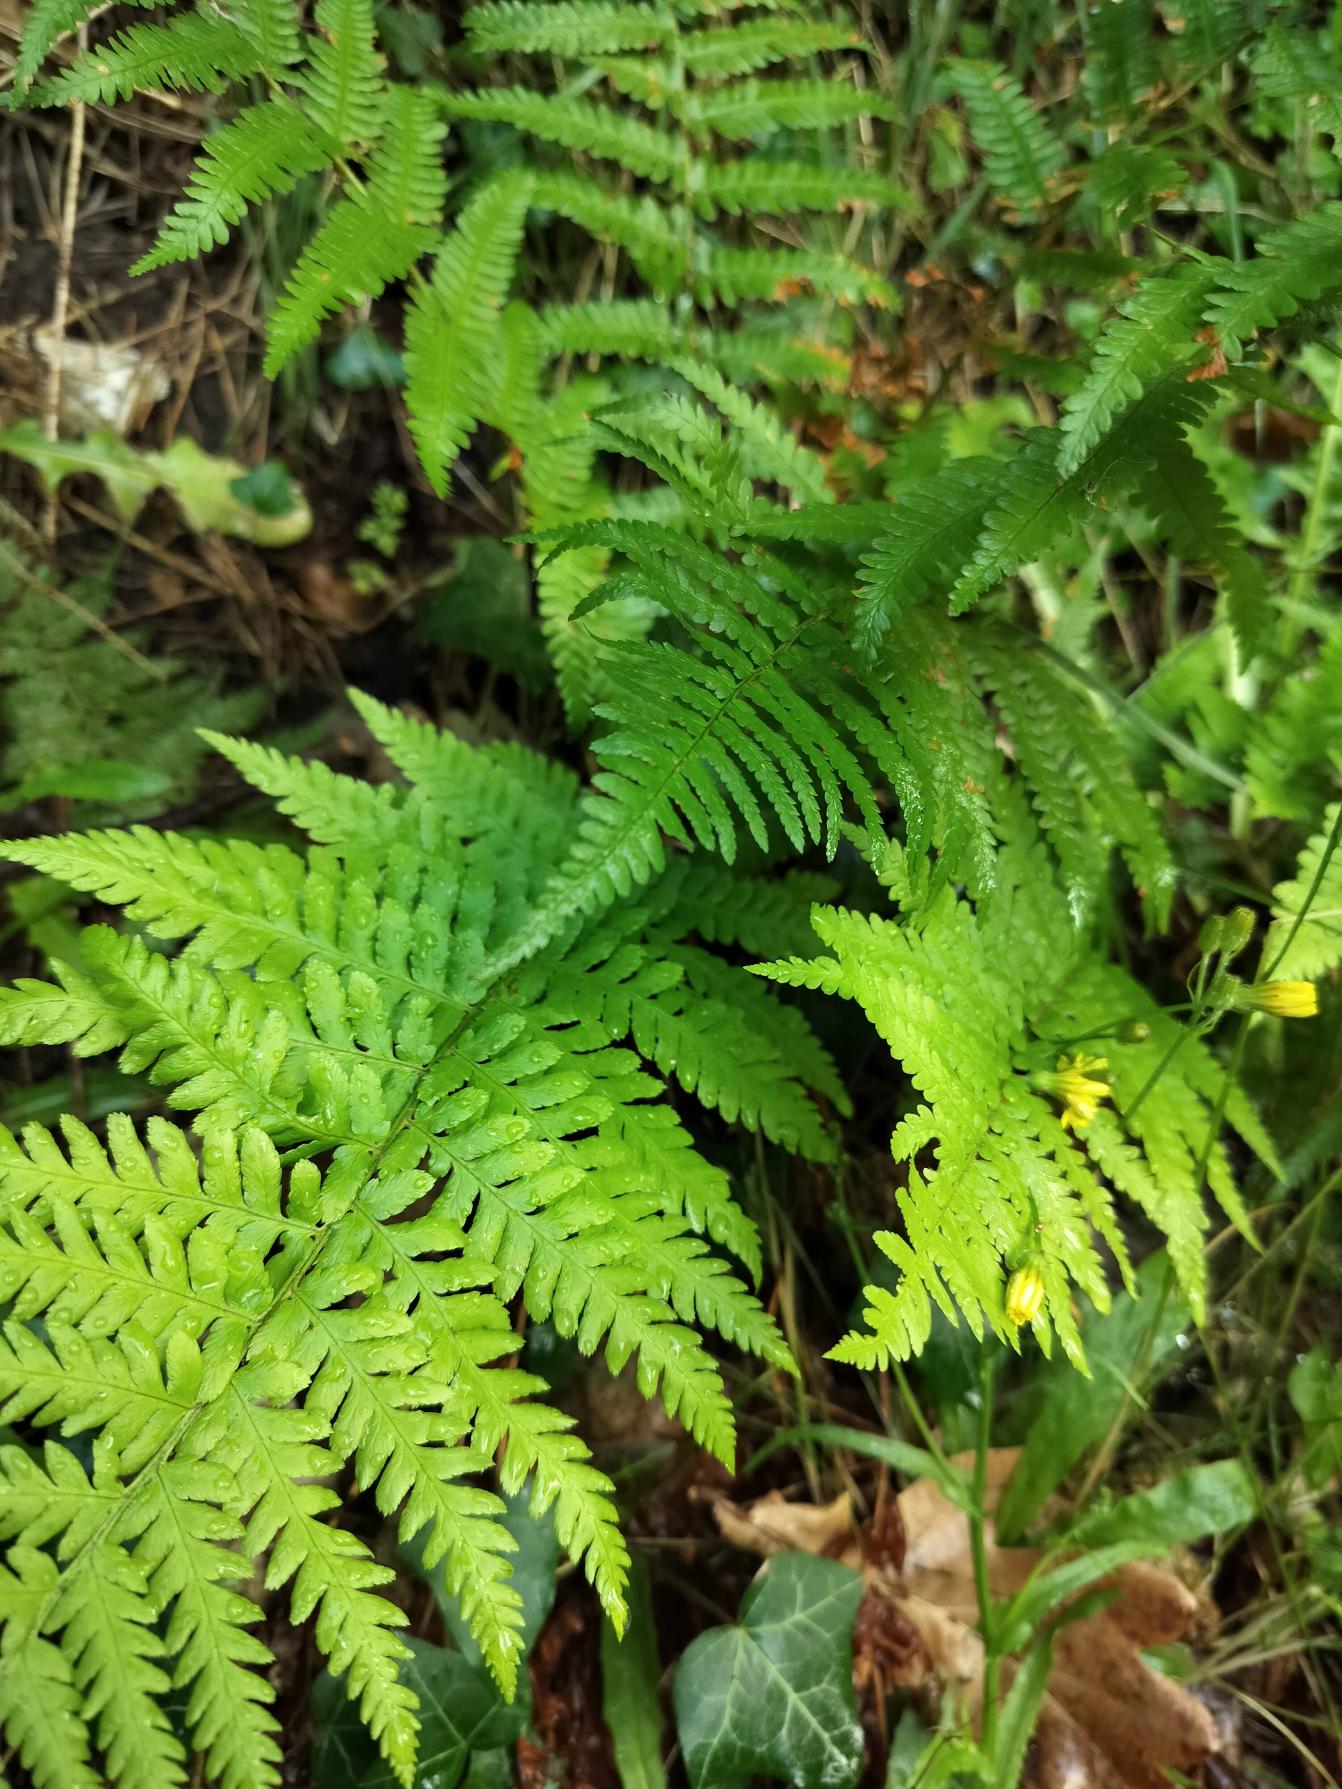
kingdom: Plantae
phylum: Tracheophyta
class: Polypodiopsida
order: Polypodiales
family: Dryopteridaceae
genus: Dryopteris
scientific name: Dryopteris filix-mas
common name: Almindelig mangeløv
